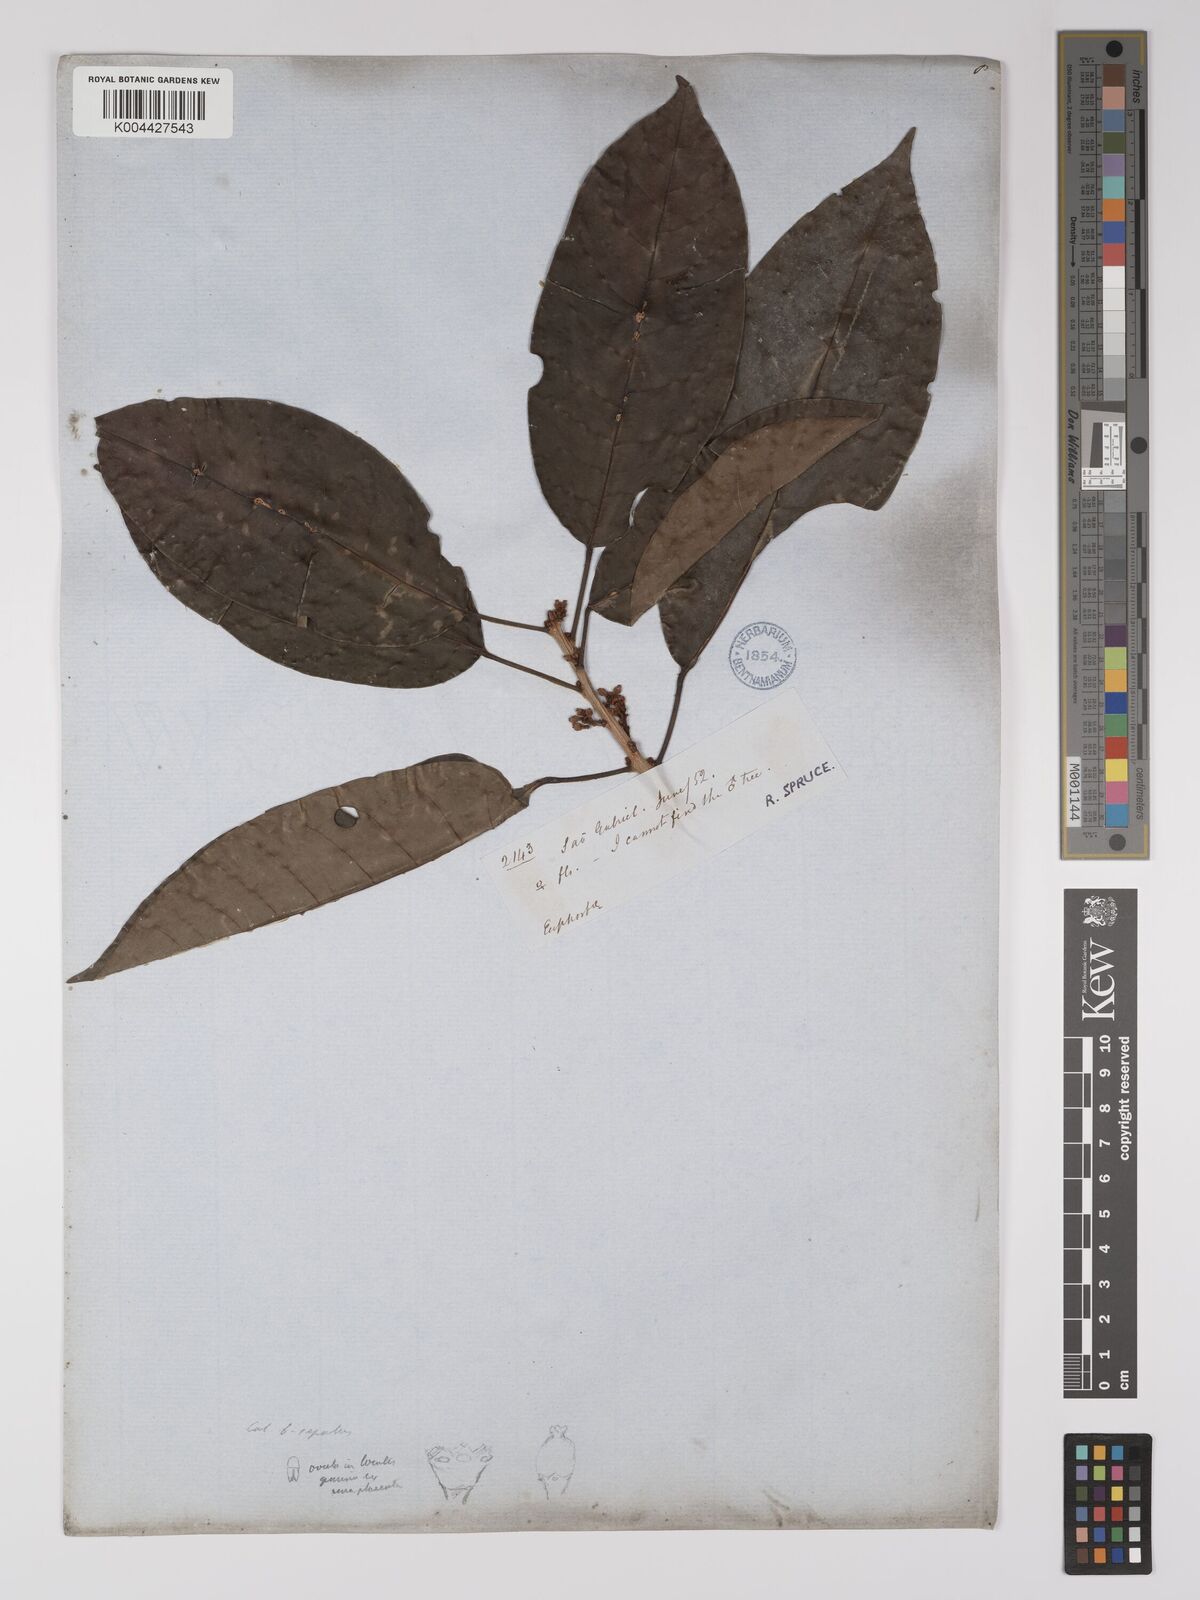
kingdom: Plantae
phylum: Tracheophyta
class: Magnoliopsida
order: Malpighiales
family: Picrodendraceae
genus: Podocalyx
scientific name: Podocalyx loranthoides
